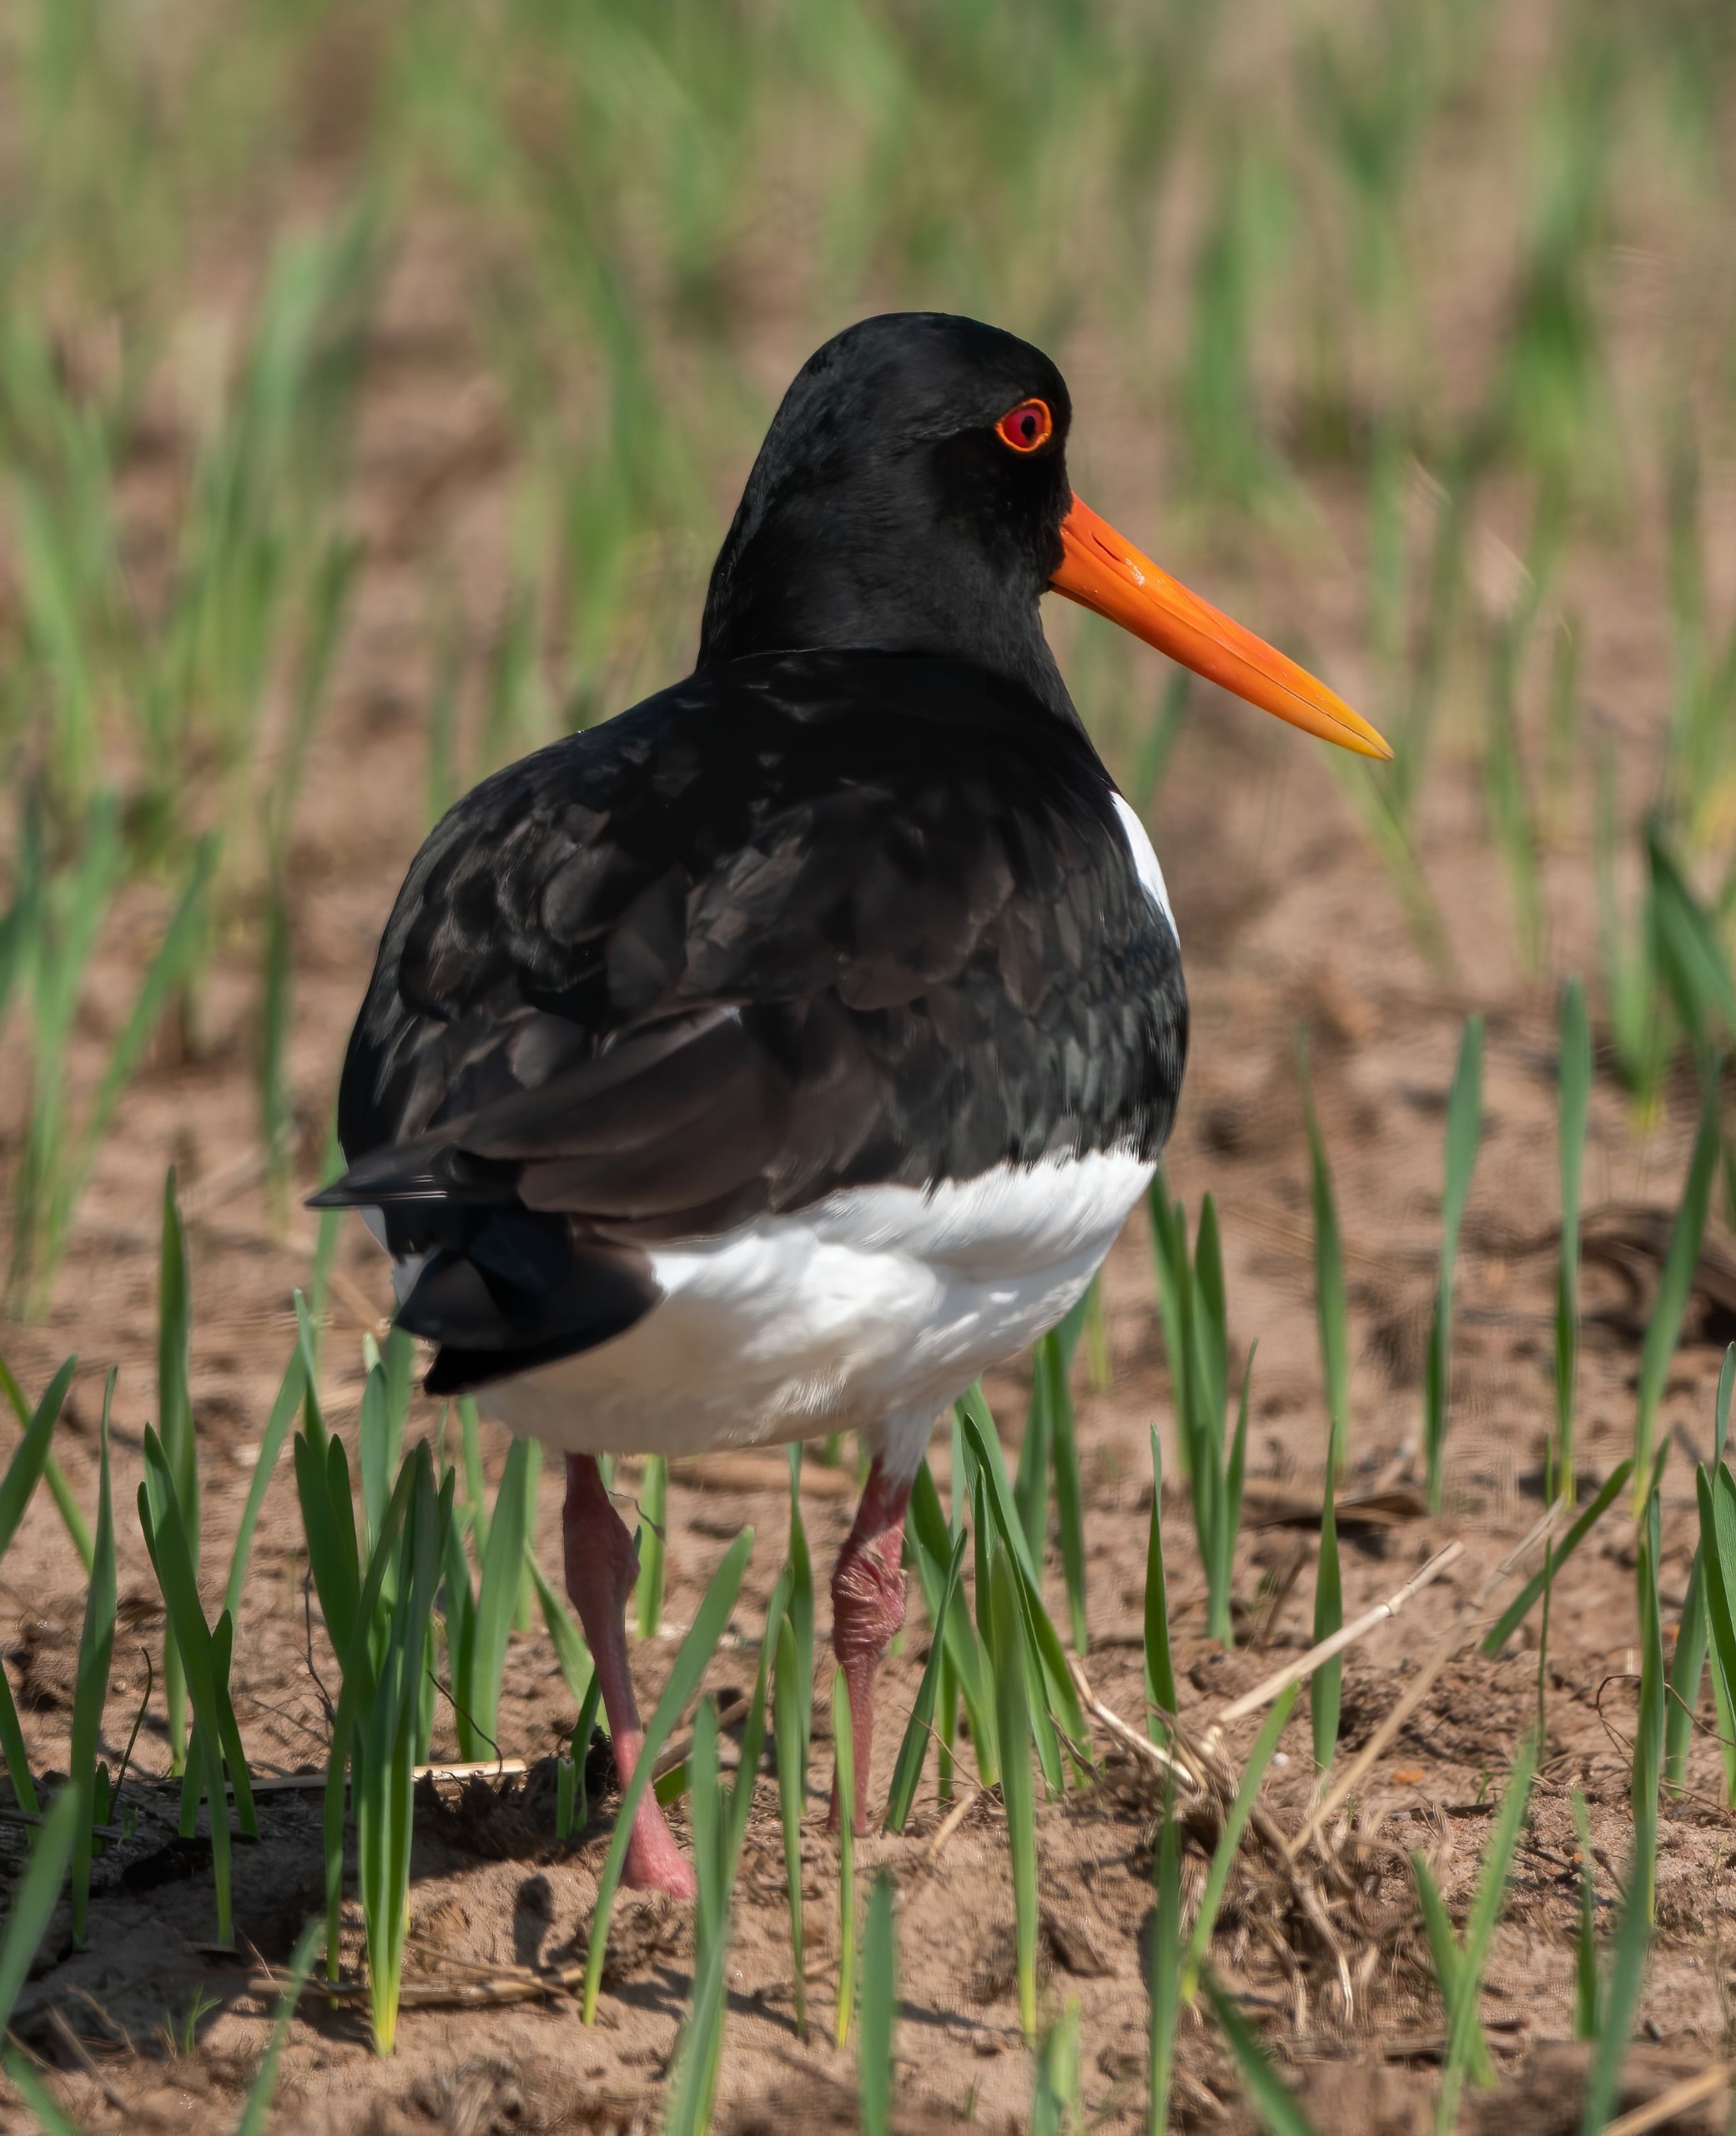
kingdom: Animalia
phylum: Chordata
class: Aves
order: Charadriiformes
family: Haematopodidae
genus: Haematopus
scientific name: Haematopus ostralegus
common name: Strandskade
